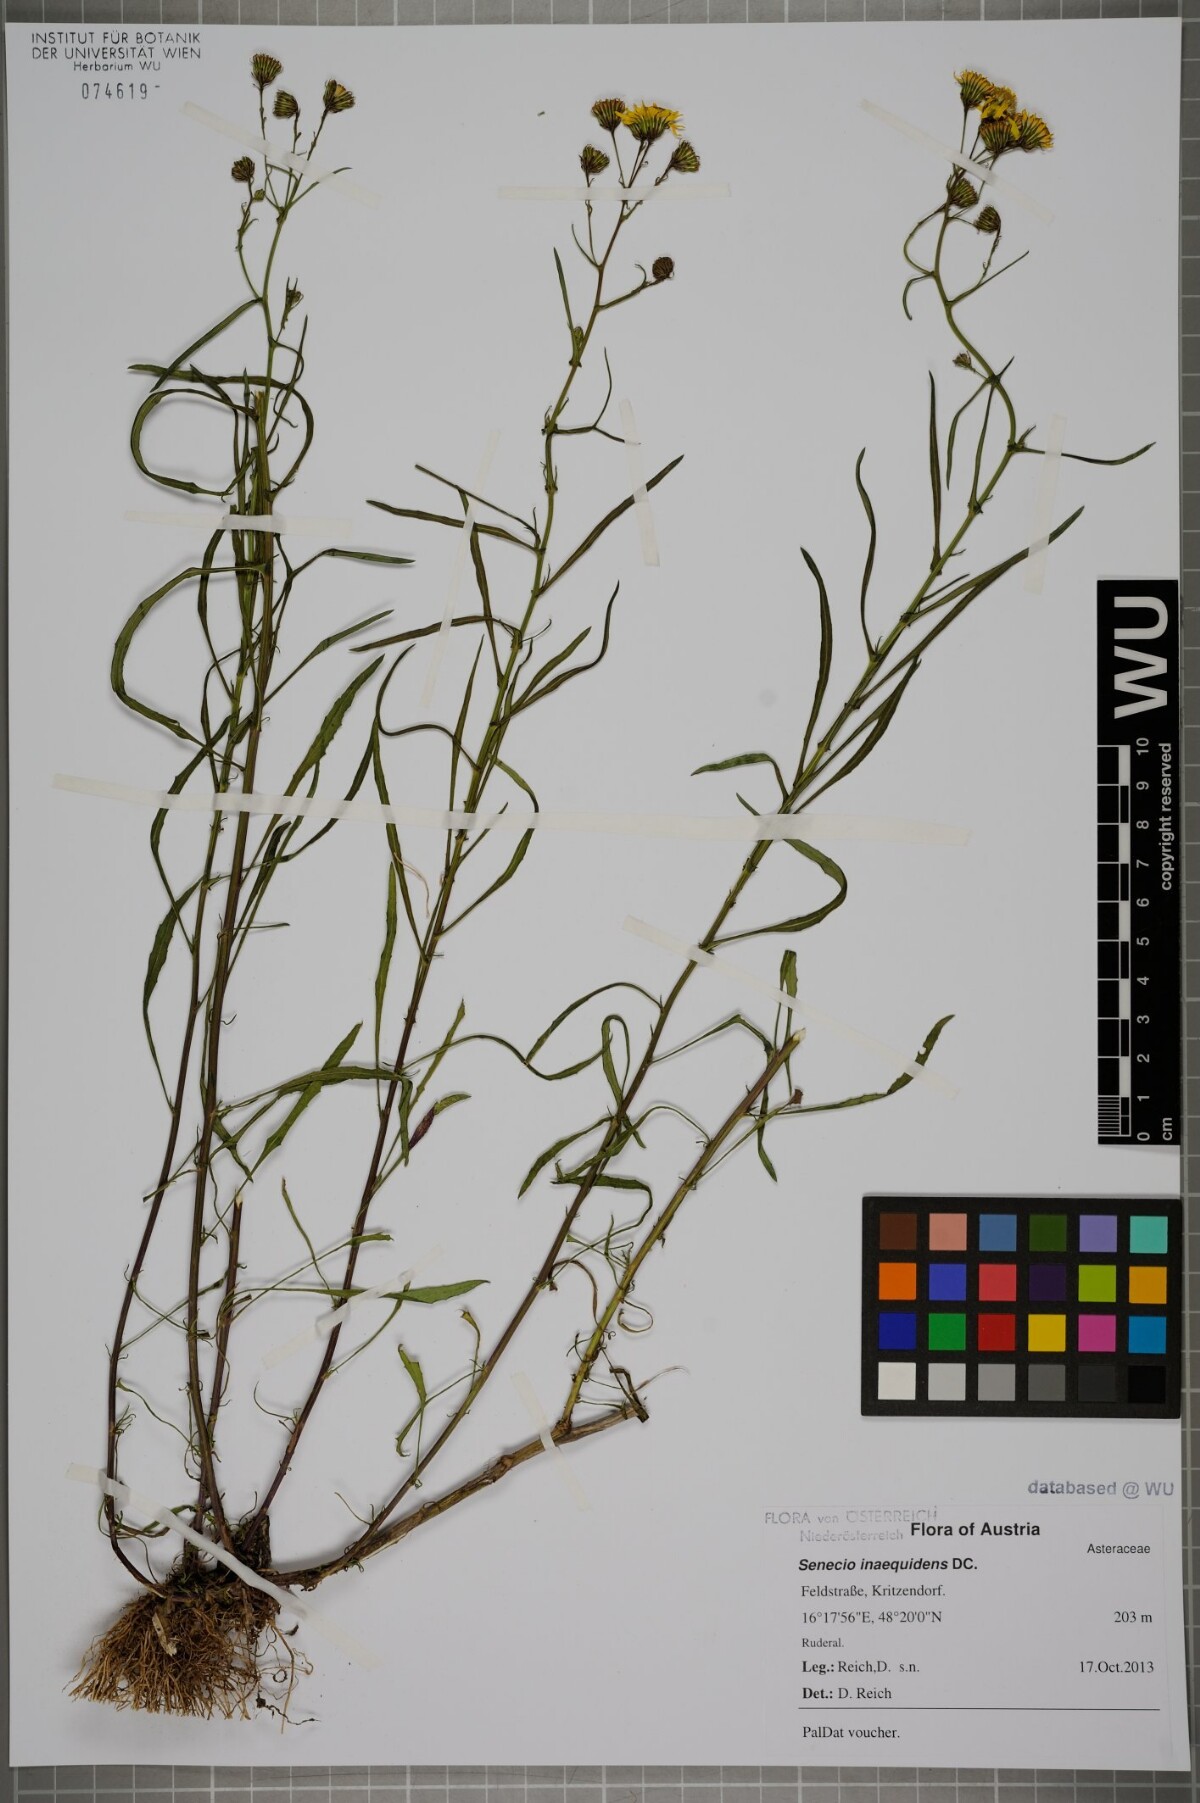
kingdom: Plantae
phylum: Tracheophyta
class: Magnoliopsida
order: Asterales
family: Asteraceae
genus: Senecio
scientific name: Senecio inaequidens
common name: Narrow-leaved ragwort
